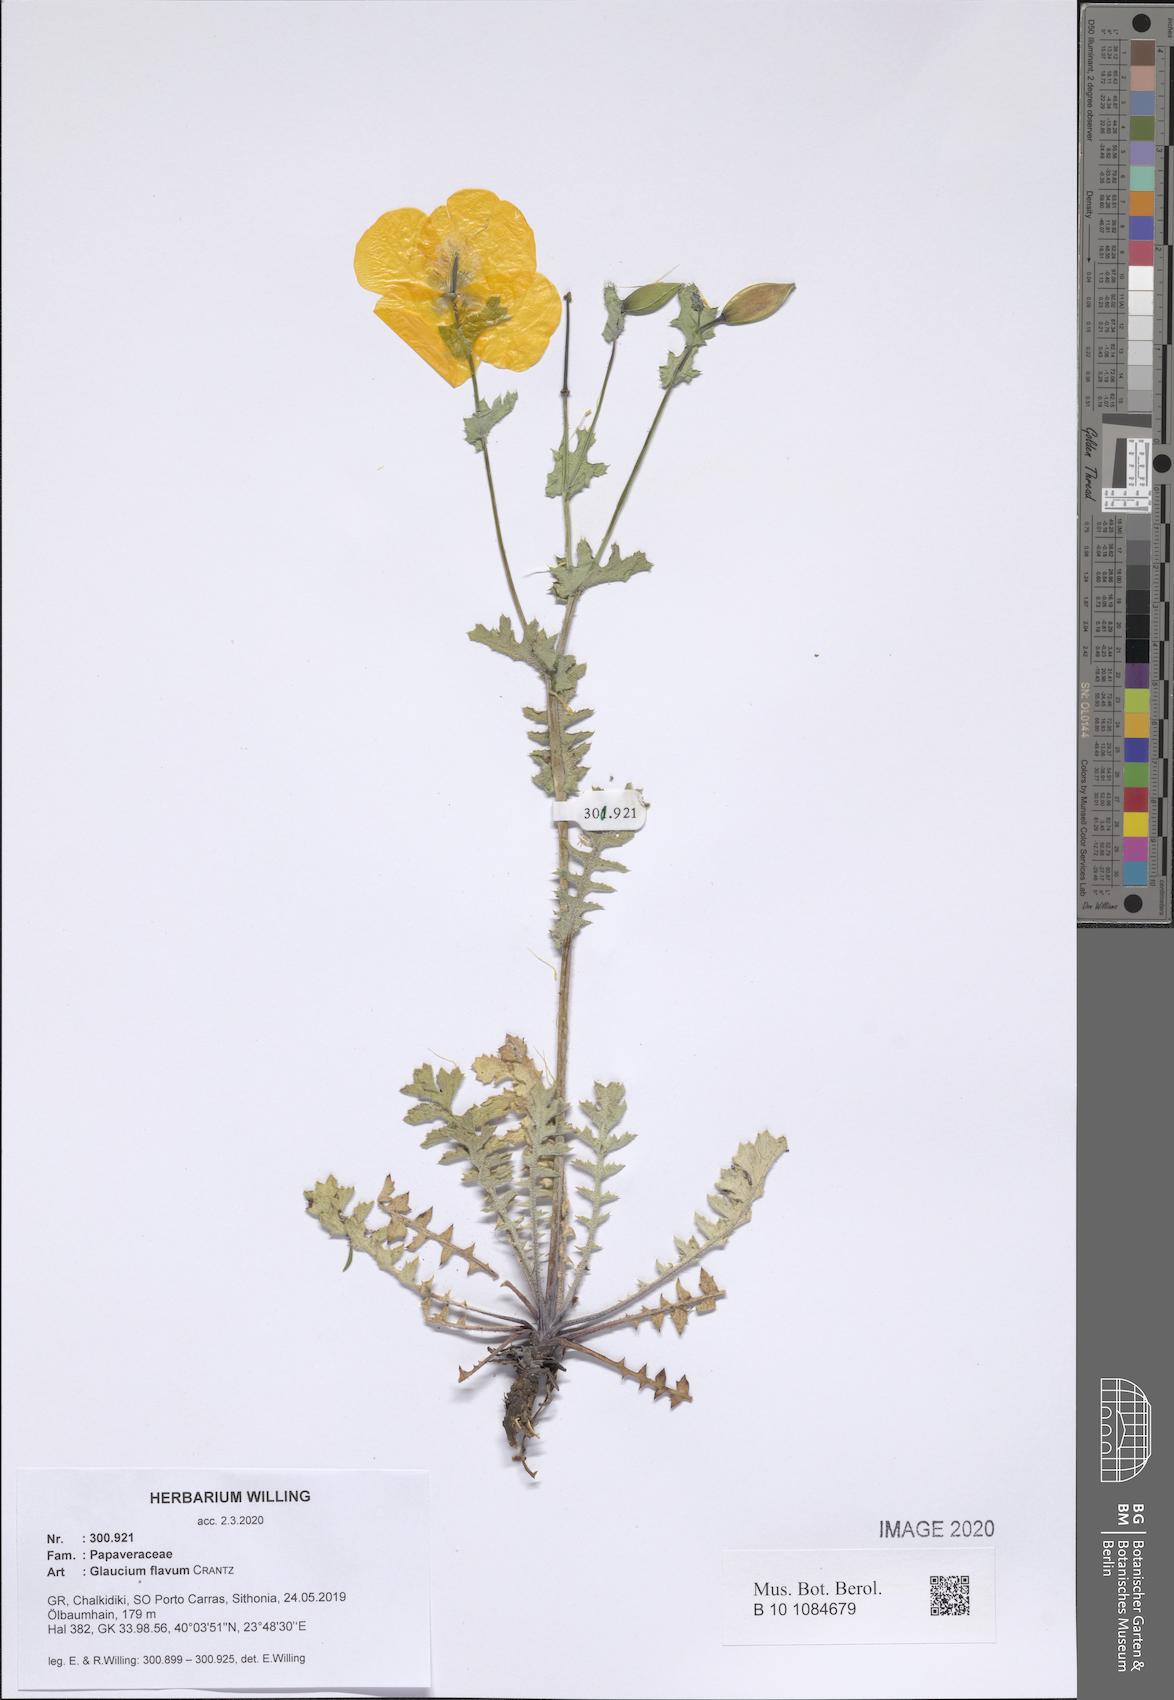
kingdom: Plantae
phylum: Tracheophyta
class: Magnoliopsida
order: Ranunculales
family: Papaveraceae
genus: Glaucium
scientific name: Glaucium flavum
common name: Yellow horned-poppy
